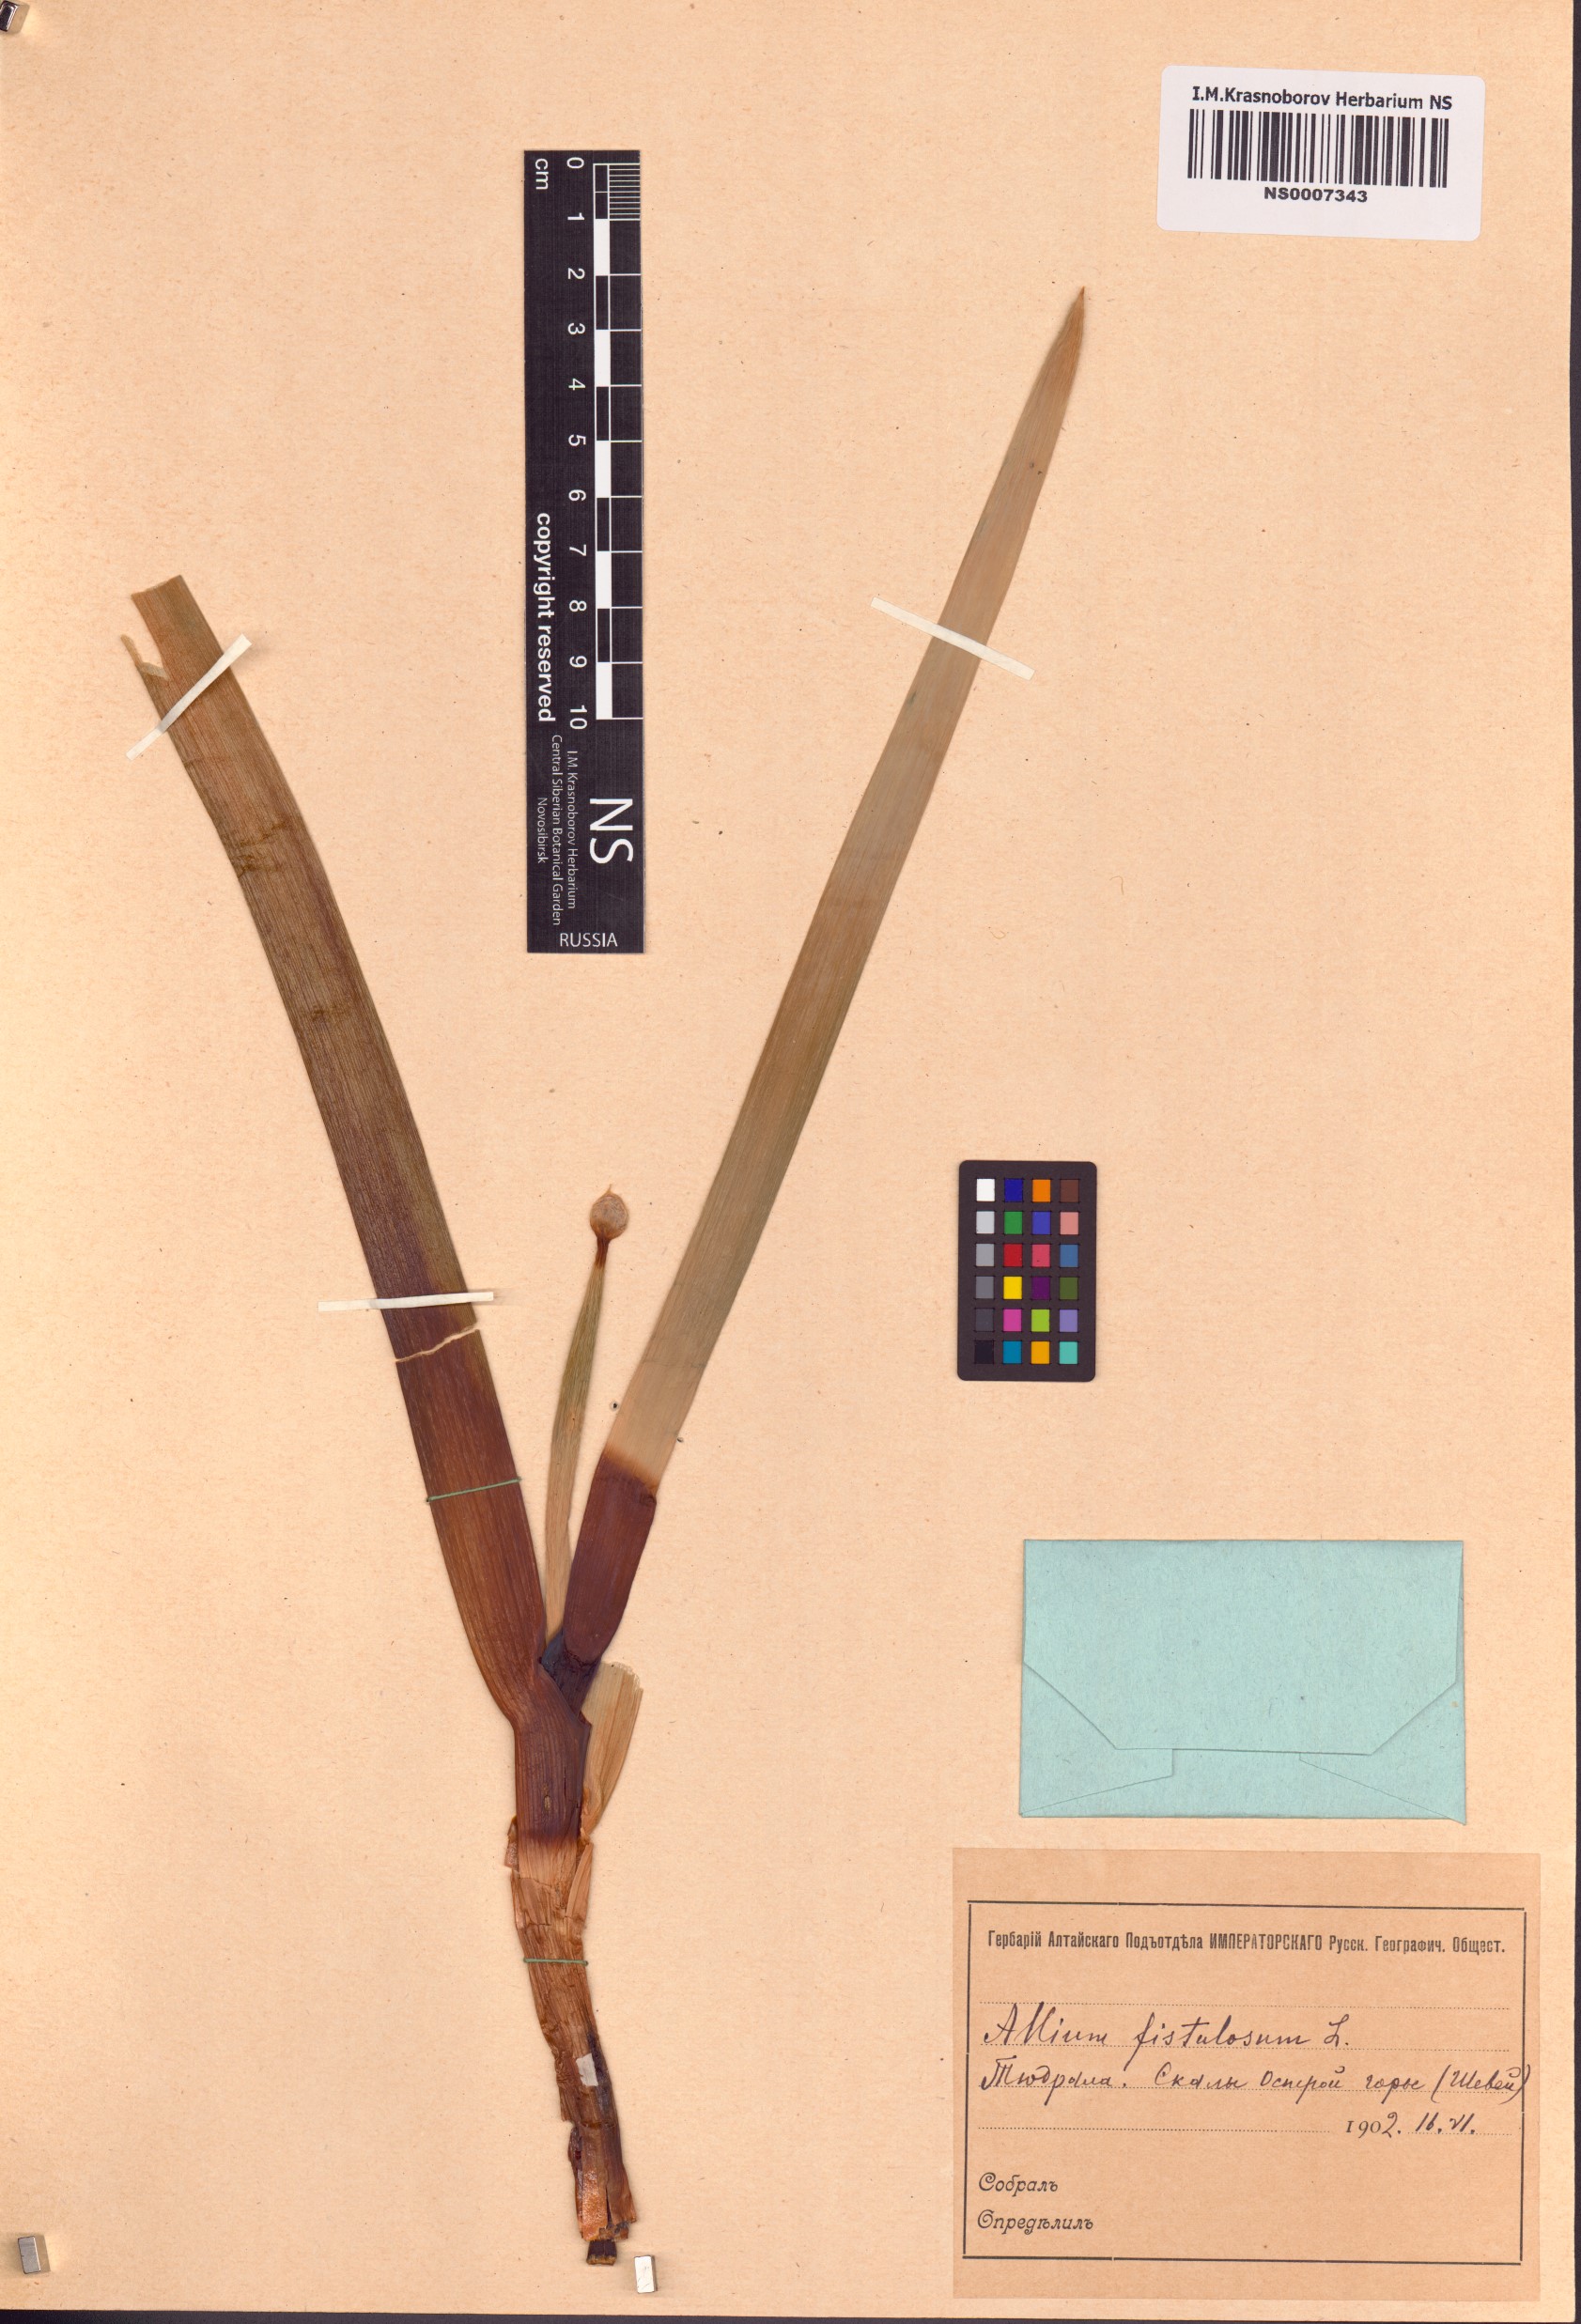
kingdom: Plantae
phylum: Tracheophyta
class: Liliopsida
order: Asparagales
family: Amaryllidaceae
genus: Allium
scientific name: Allium altaicum
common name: Altai onion
